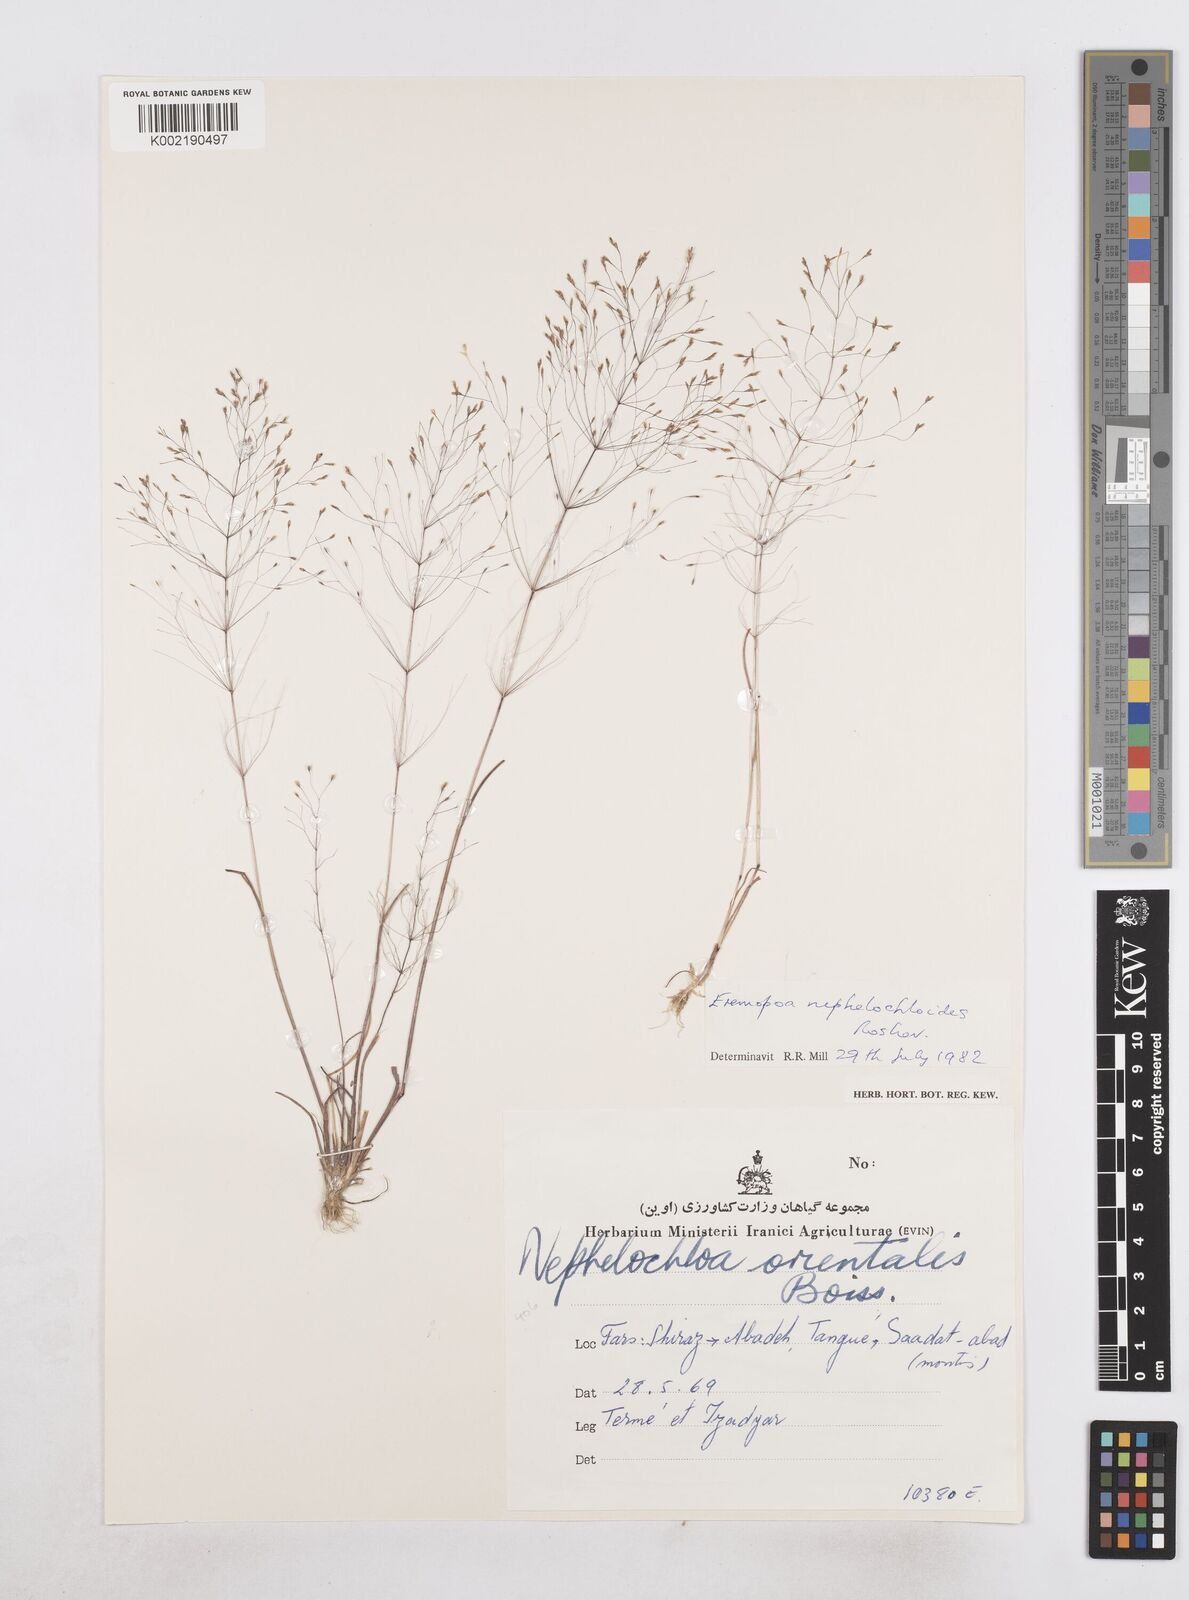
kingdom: Plantae
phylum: Tracheophyta
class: Liliopsida
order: Poales
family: Poaceae
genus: Poa
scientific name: Poa nephelochloides
